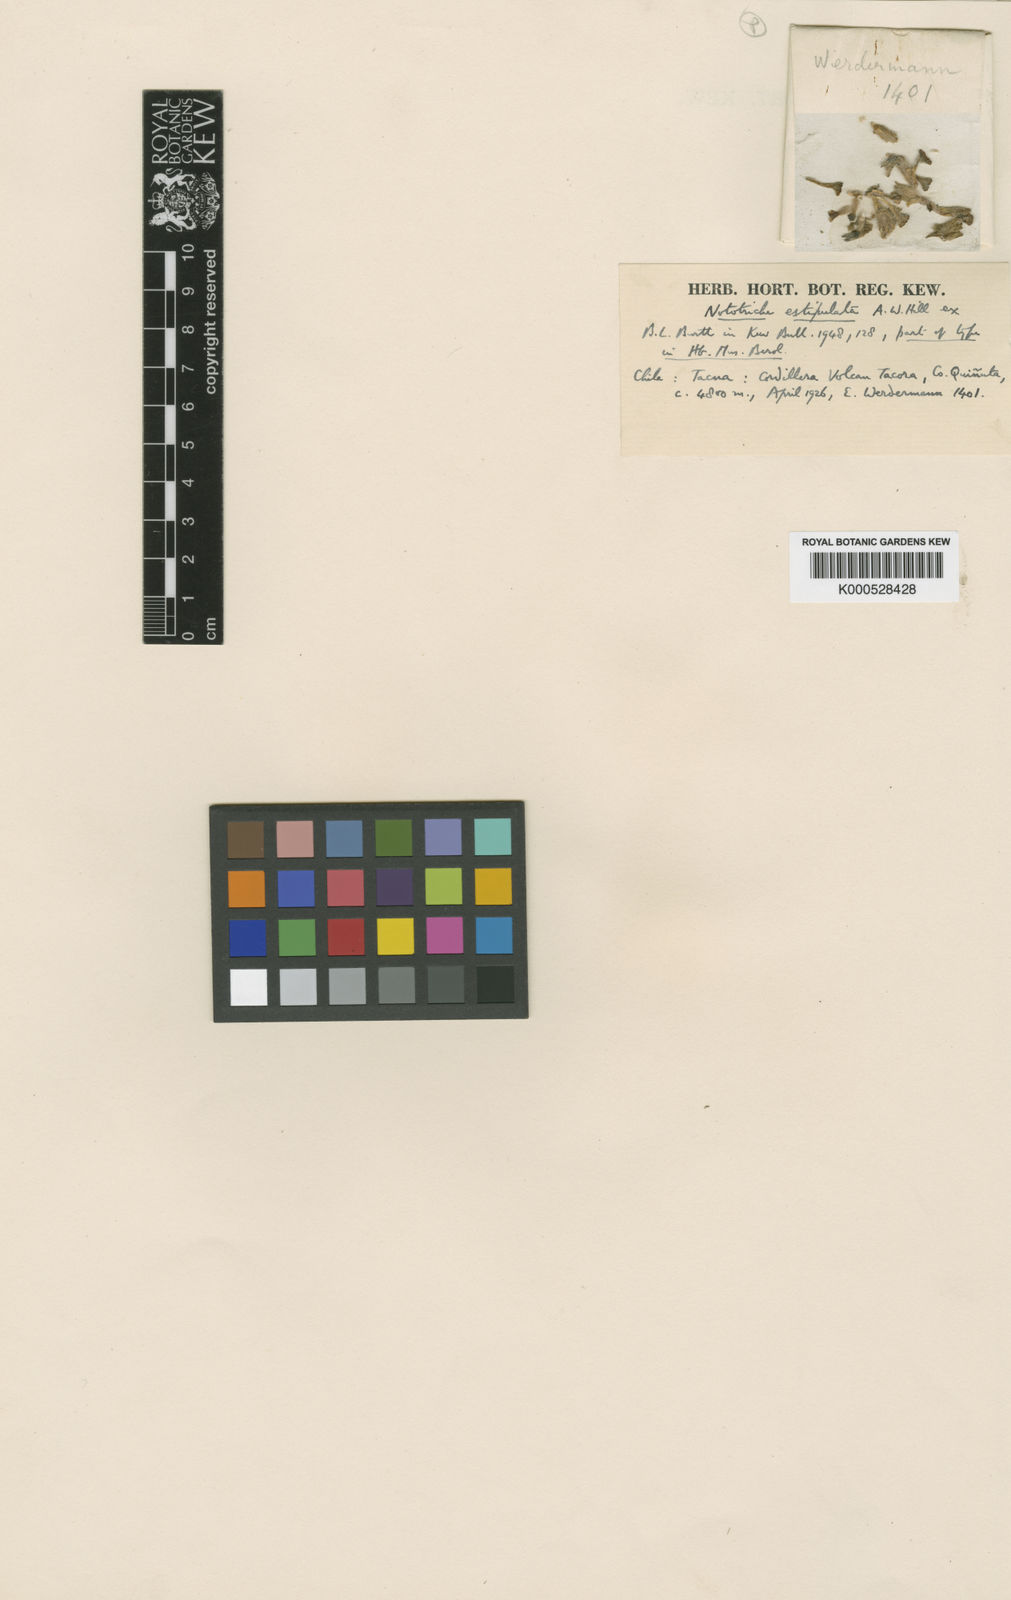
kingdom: Plantae
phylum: Tracheophyta
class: Magnoliopsida
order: Malvales
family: Malvaceae
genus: Nototriche
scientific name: Nototriche
